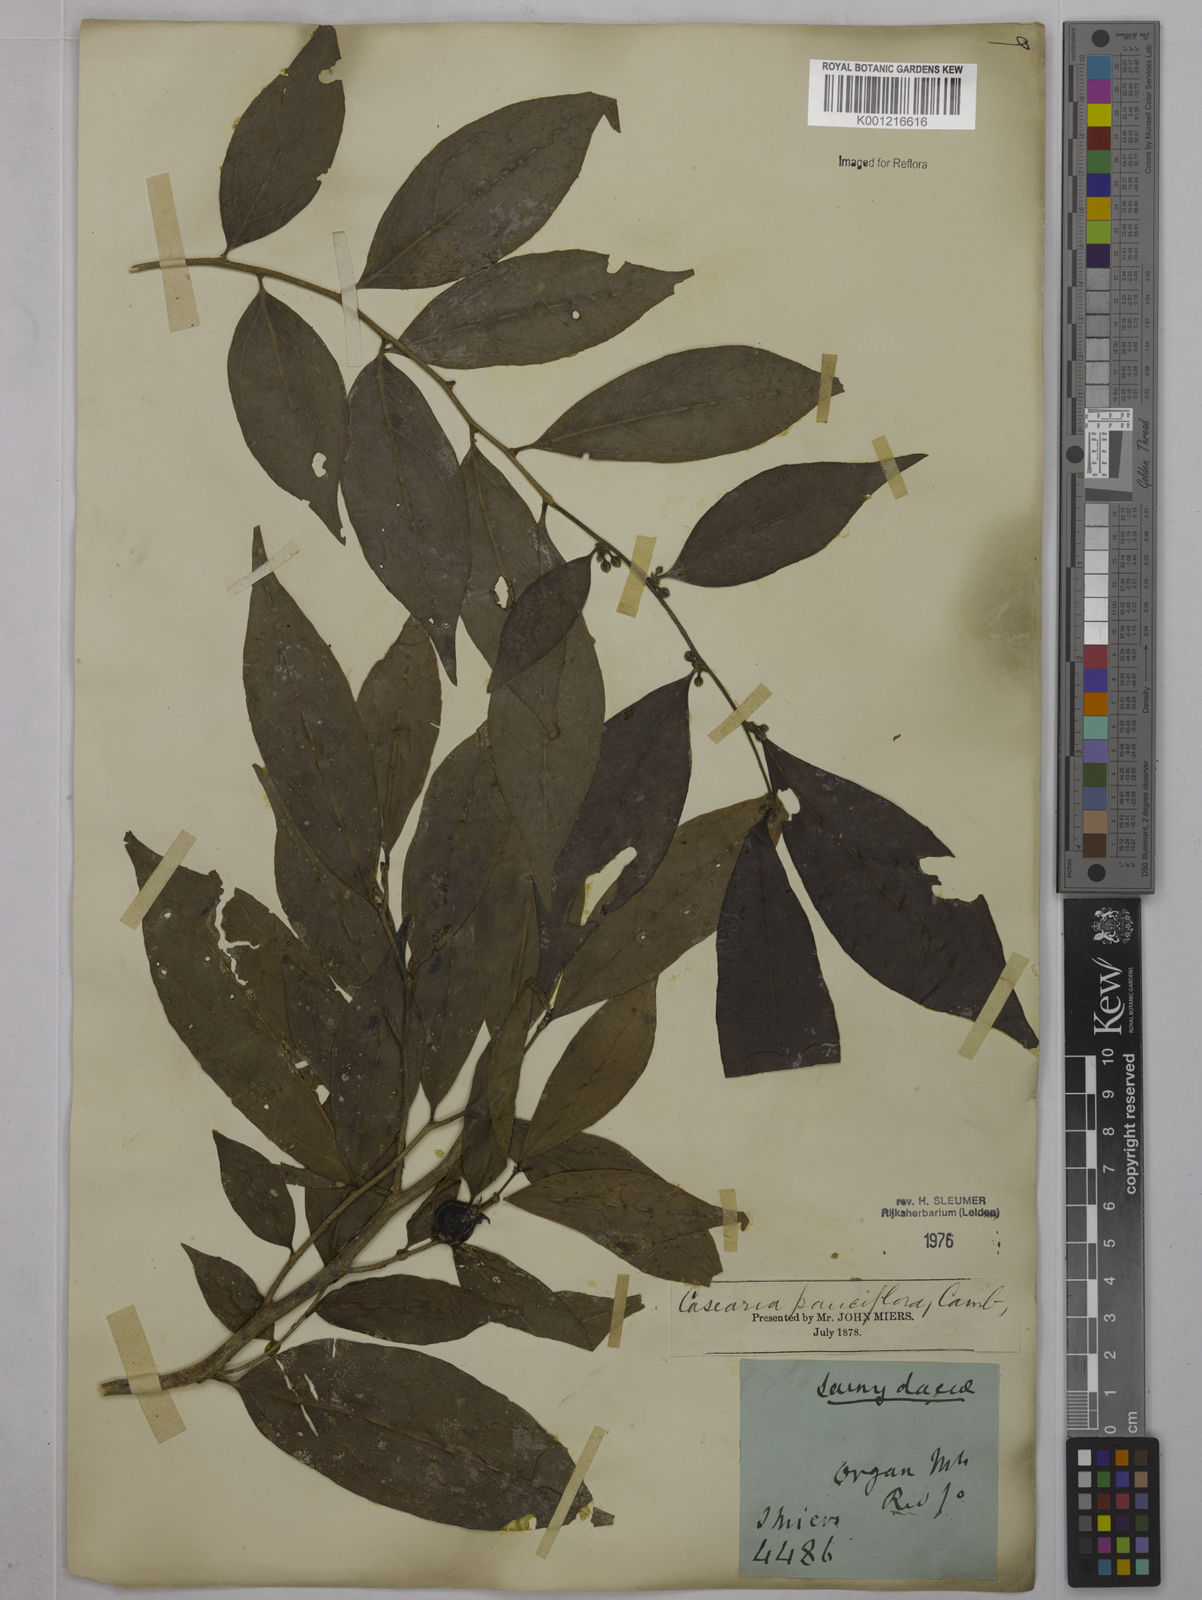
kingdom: Plantae
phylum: Tracheophyta
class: Magnoliopsida
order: Malpighiales
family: Salicaceae
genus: Casearia
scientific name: Casearia pauciflora
